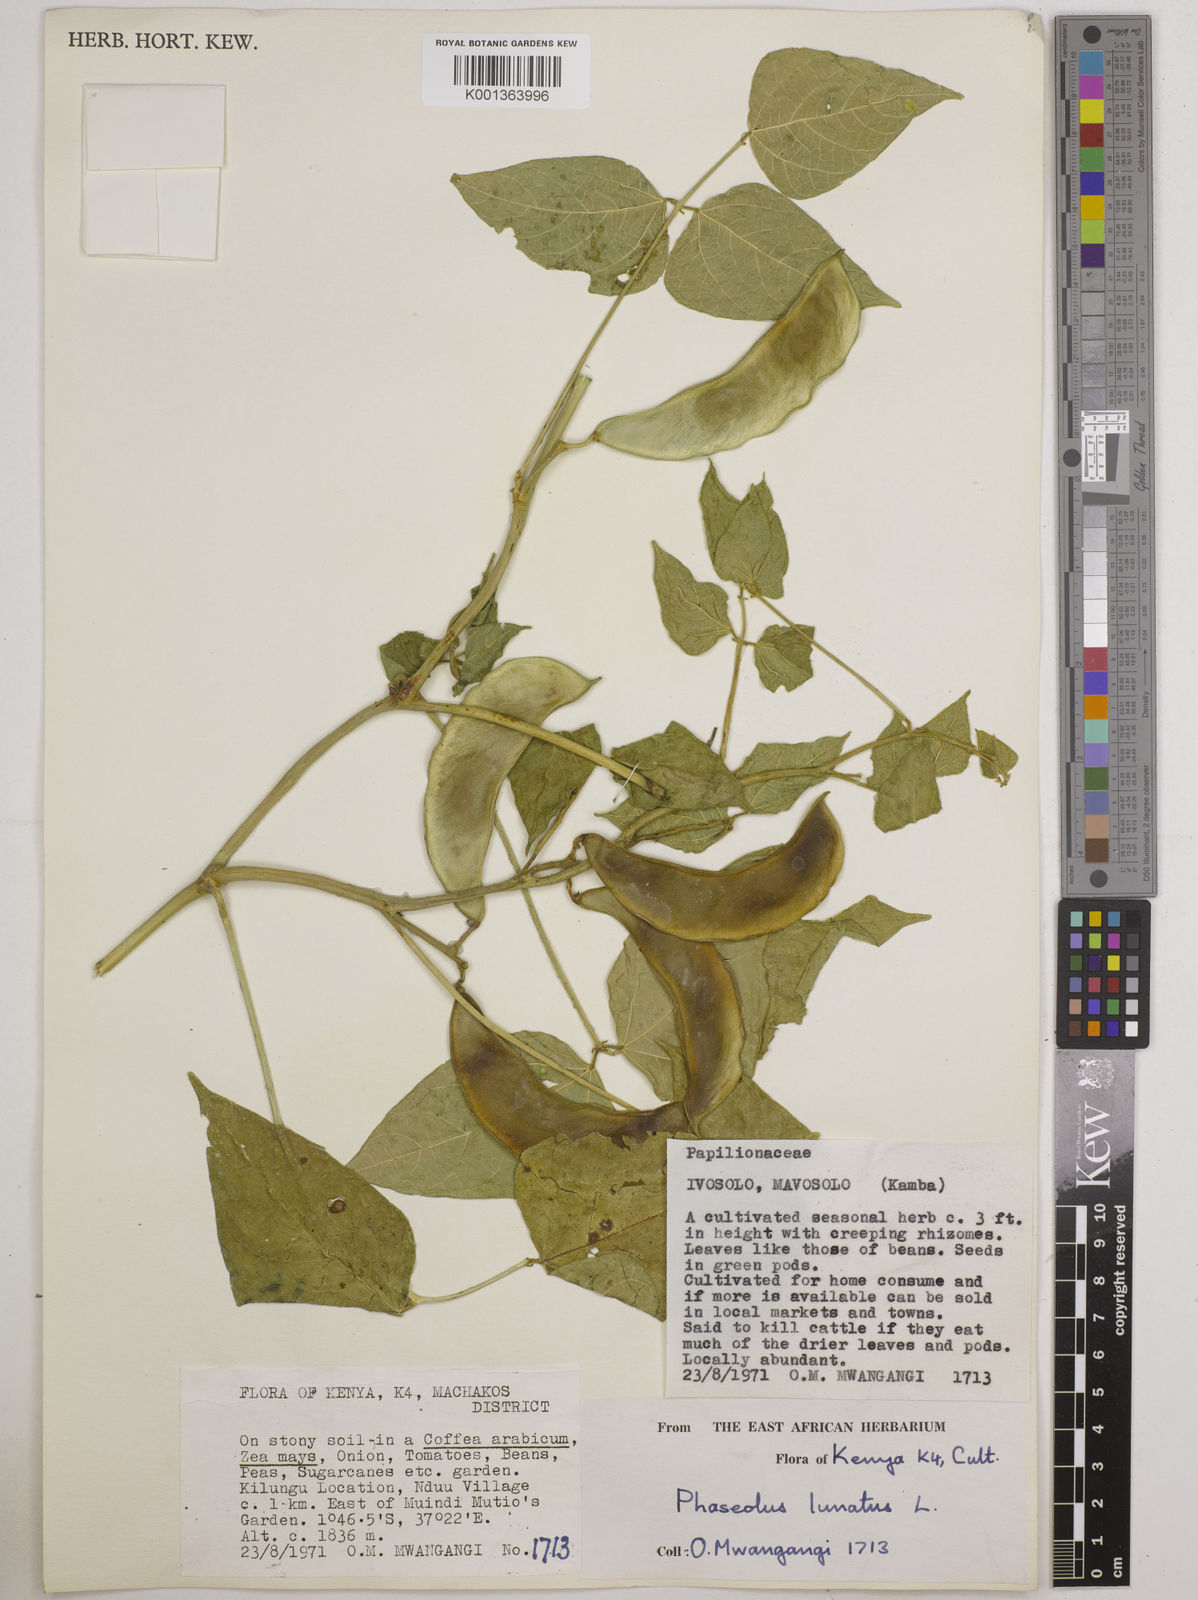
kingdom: Plantae
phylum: Tracheophyta
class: Magnoliopsida
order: Fabales
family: Fabaceae
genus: Phaseolus
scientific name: Phaseolus lunatus
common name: Sieva bean
